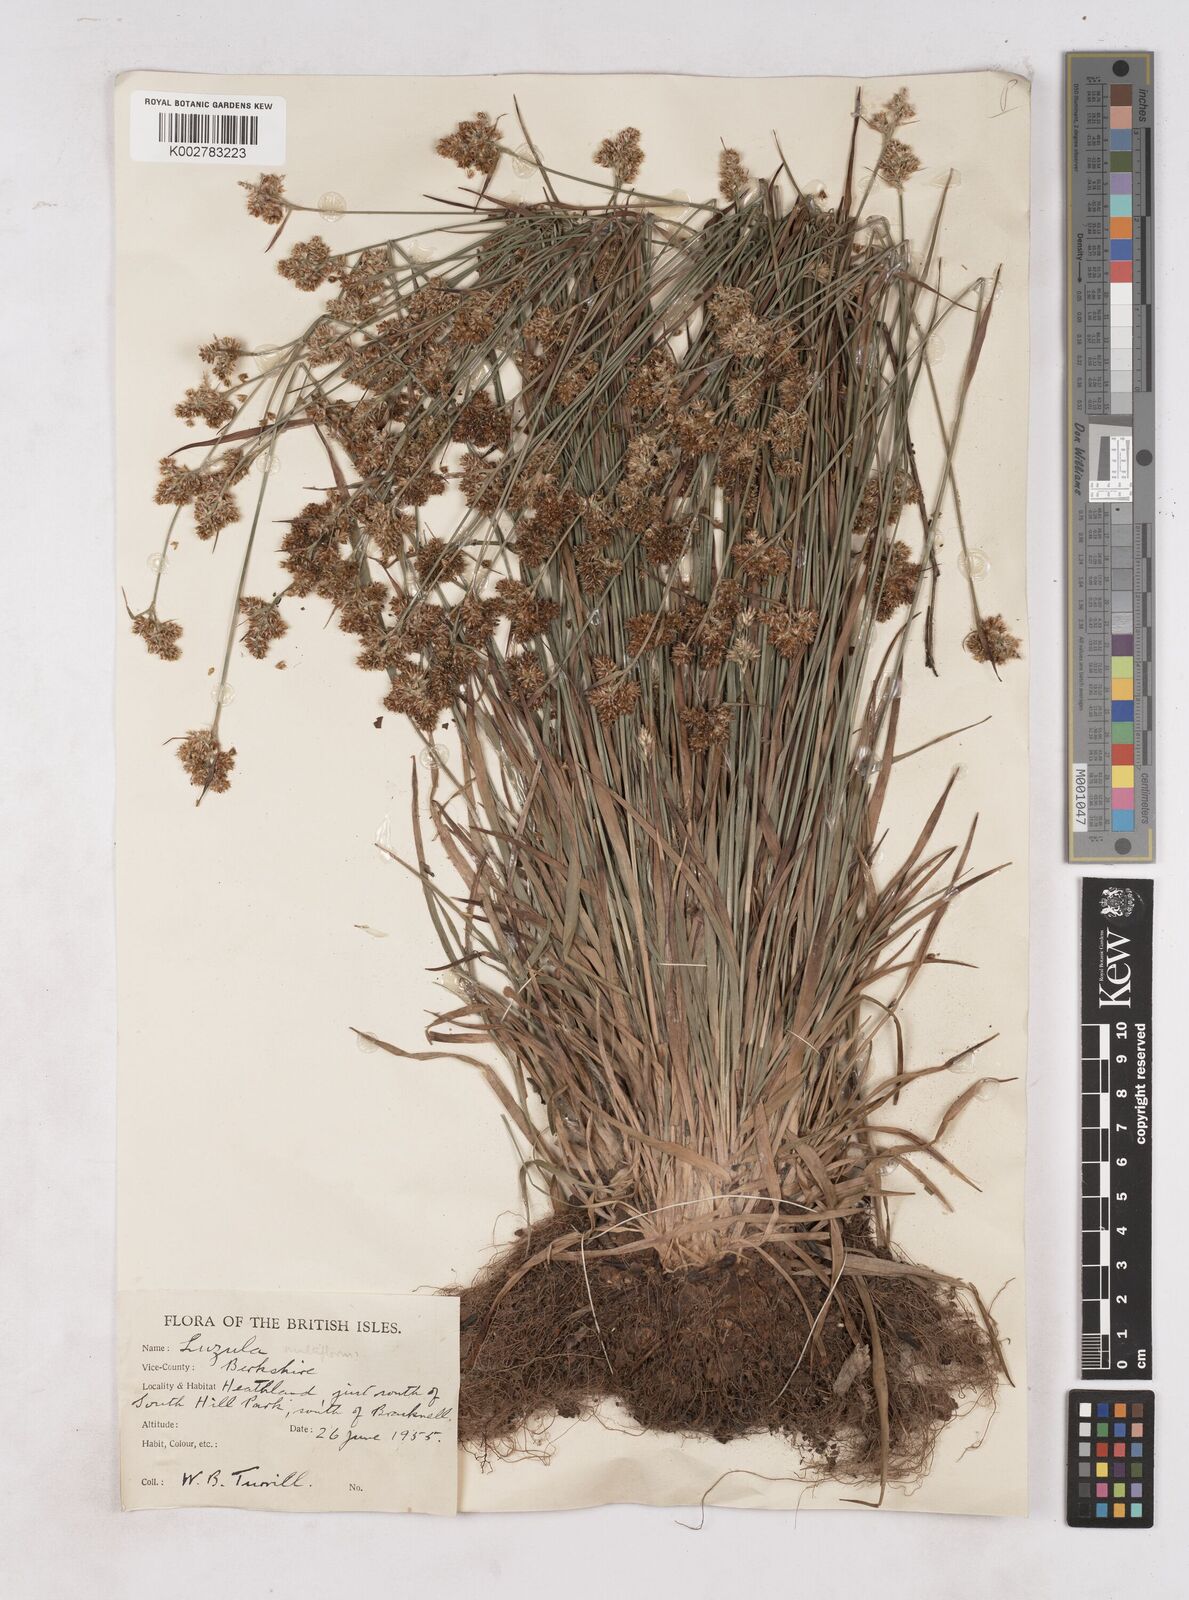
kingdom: Plantae
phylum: Tracheophyta
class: Liliopsida
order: Poales
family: Juncaceae
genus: Luzula
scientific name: Luzula multiflora
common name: Heath wood-rush
